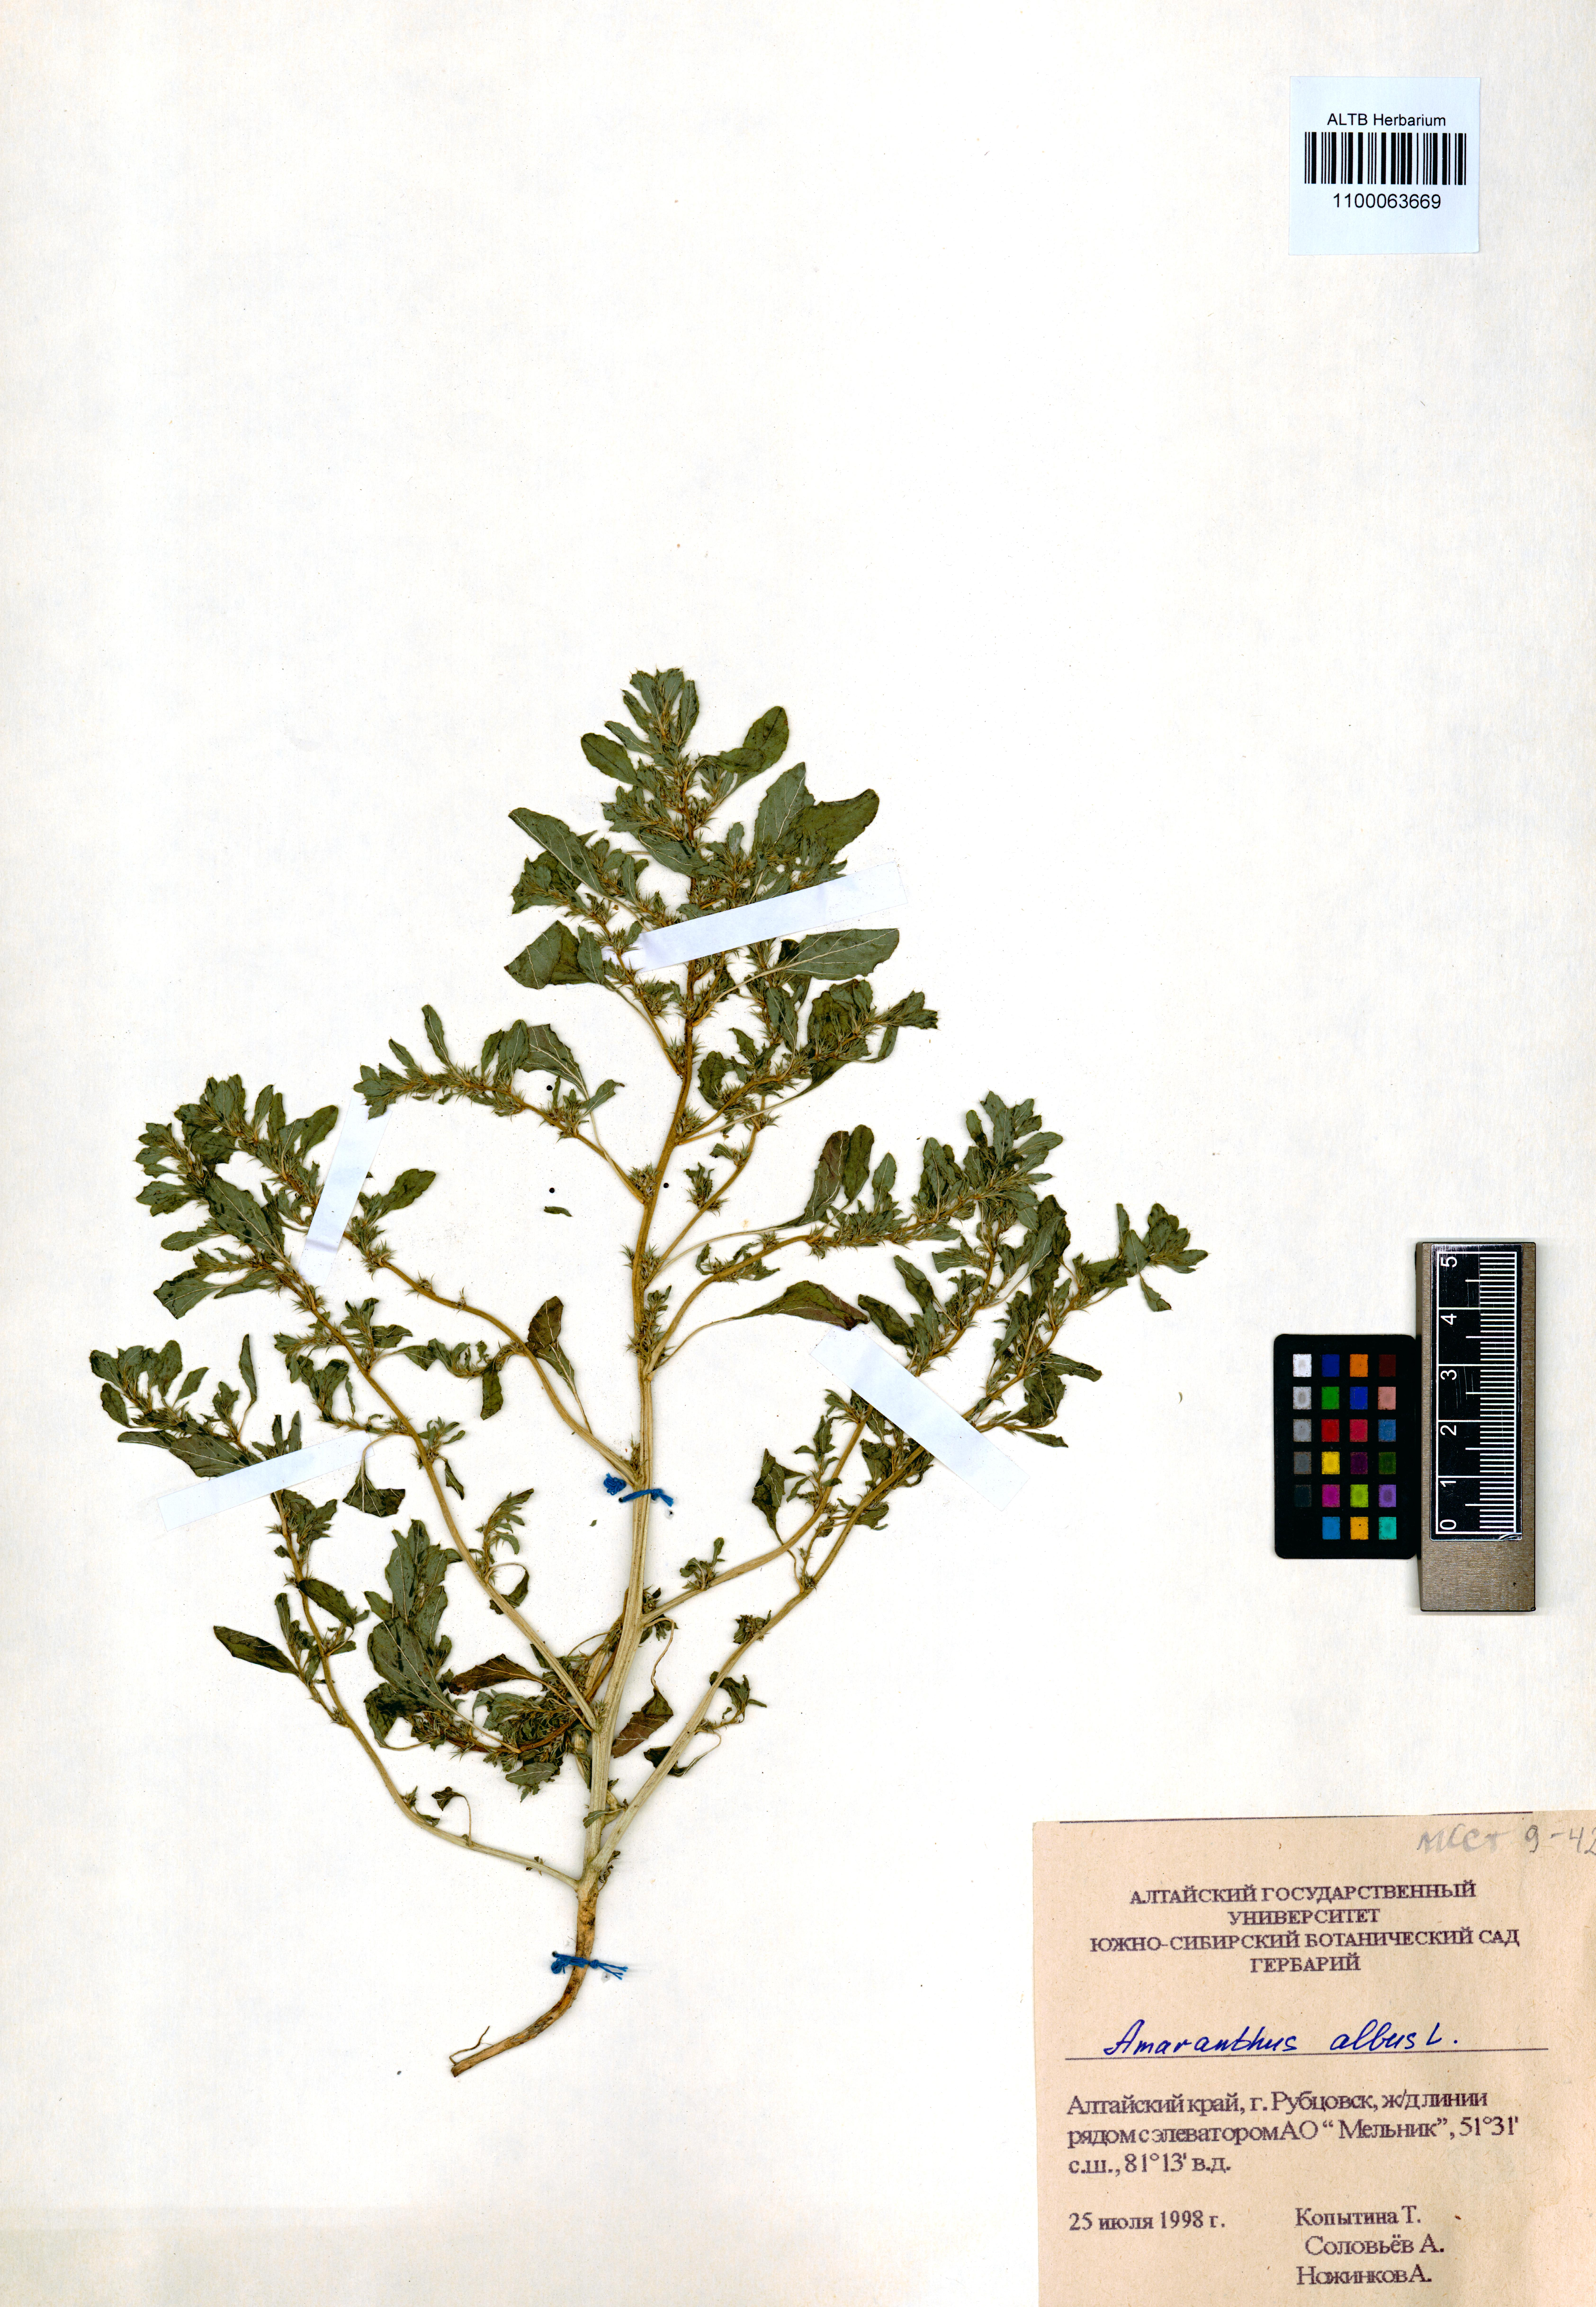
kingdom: Plantae
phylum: Tracheophyta
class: Magnoliopsida
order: Caryophyllales
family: Amaranthaceae
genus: Amaranthus
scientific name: Amaranthus albus
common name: White pigweed
